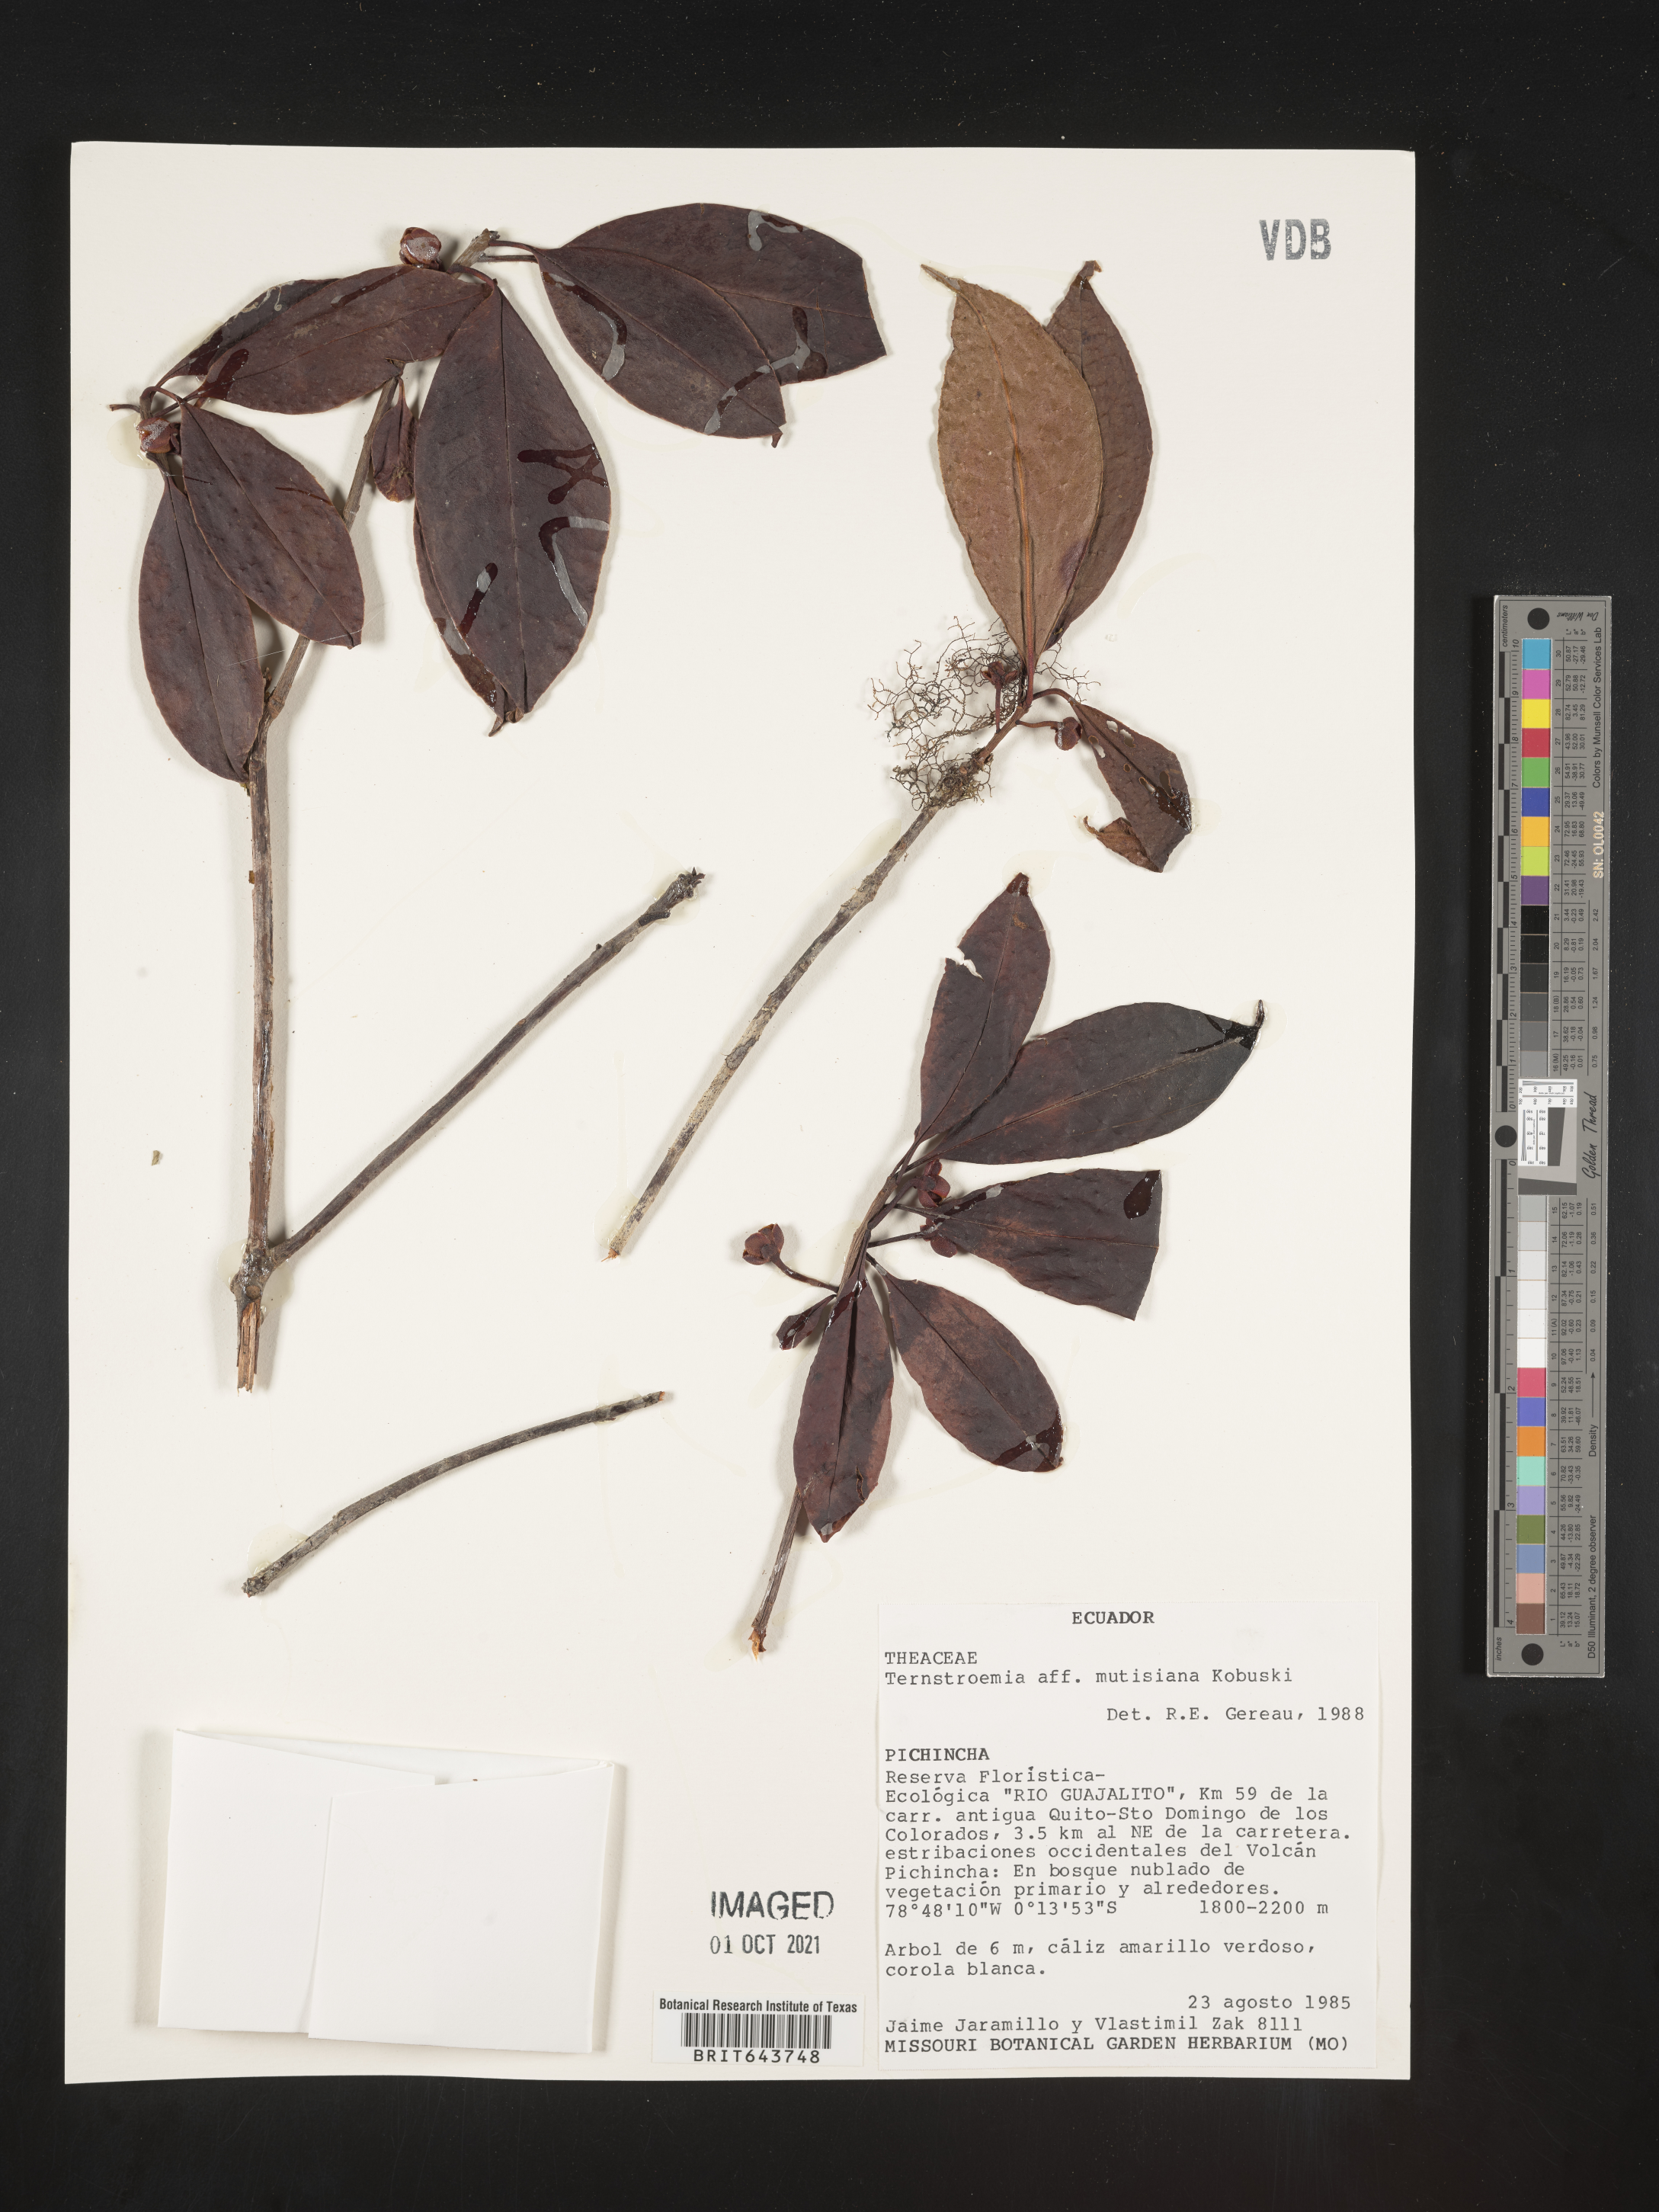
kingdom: Plantae
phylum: Tracheophyta
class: Magnoliopsida
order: Ericales
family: Pentaphylacaceae
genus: Ternstroemia
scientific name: Ternstroemia
